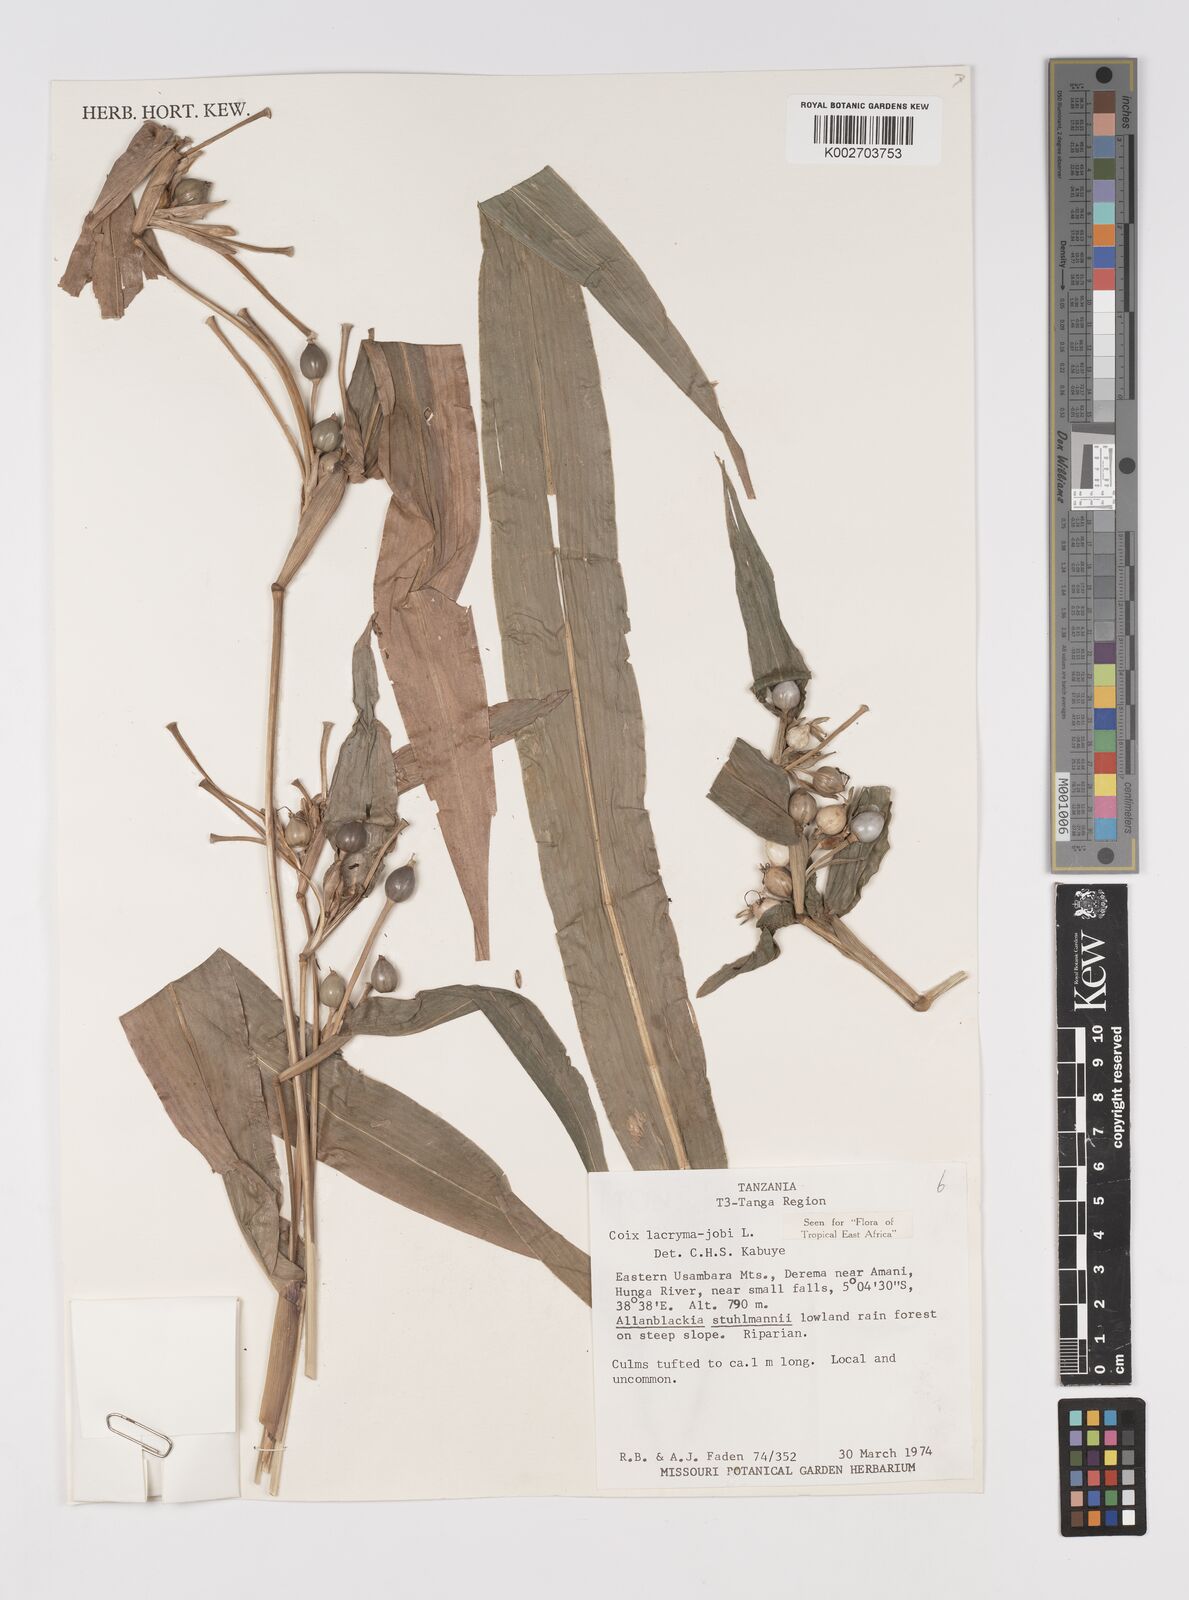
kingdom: Plantae
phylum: Tracheophyta
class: Liliopsida
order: Poales
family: Poaceae
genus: Coix
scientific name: Coix lacryma-jobi
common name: Job's tears
